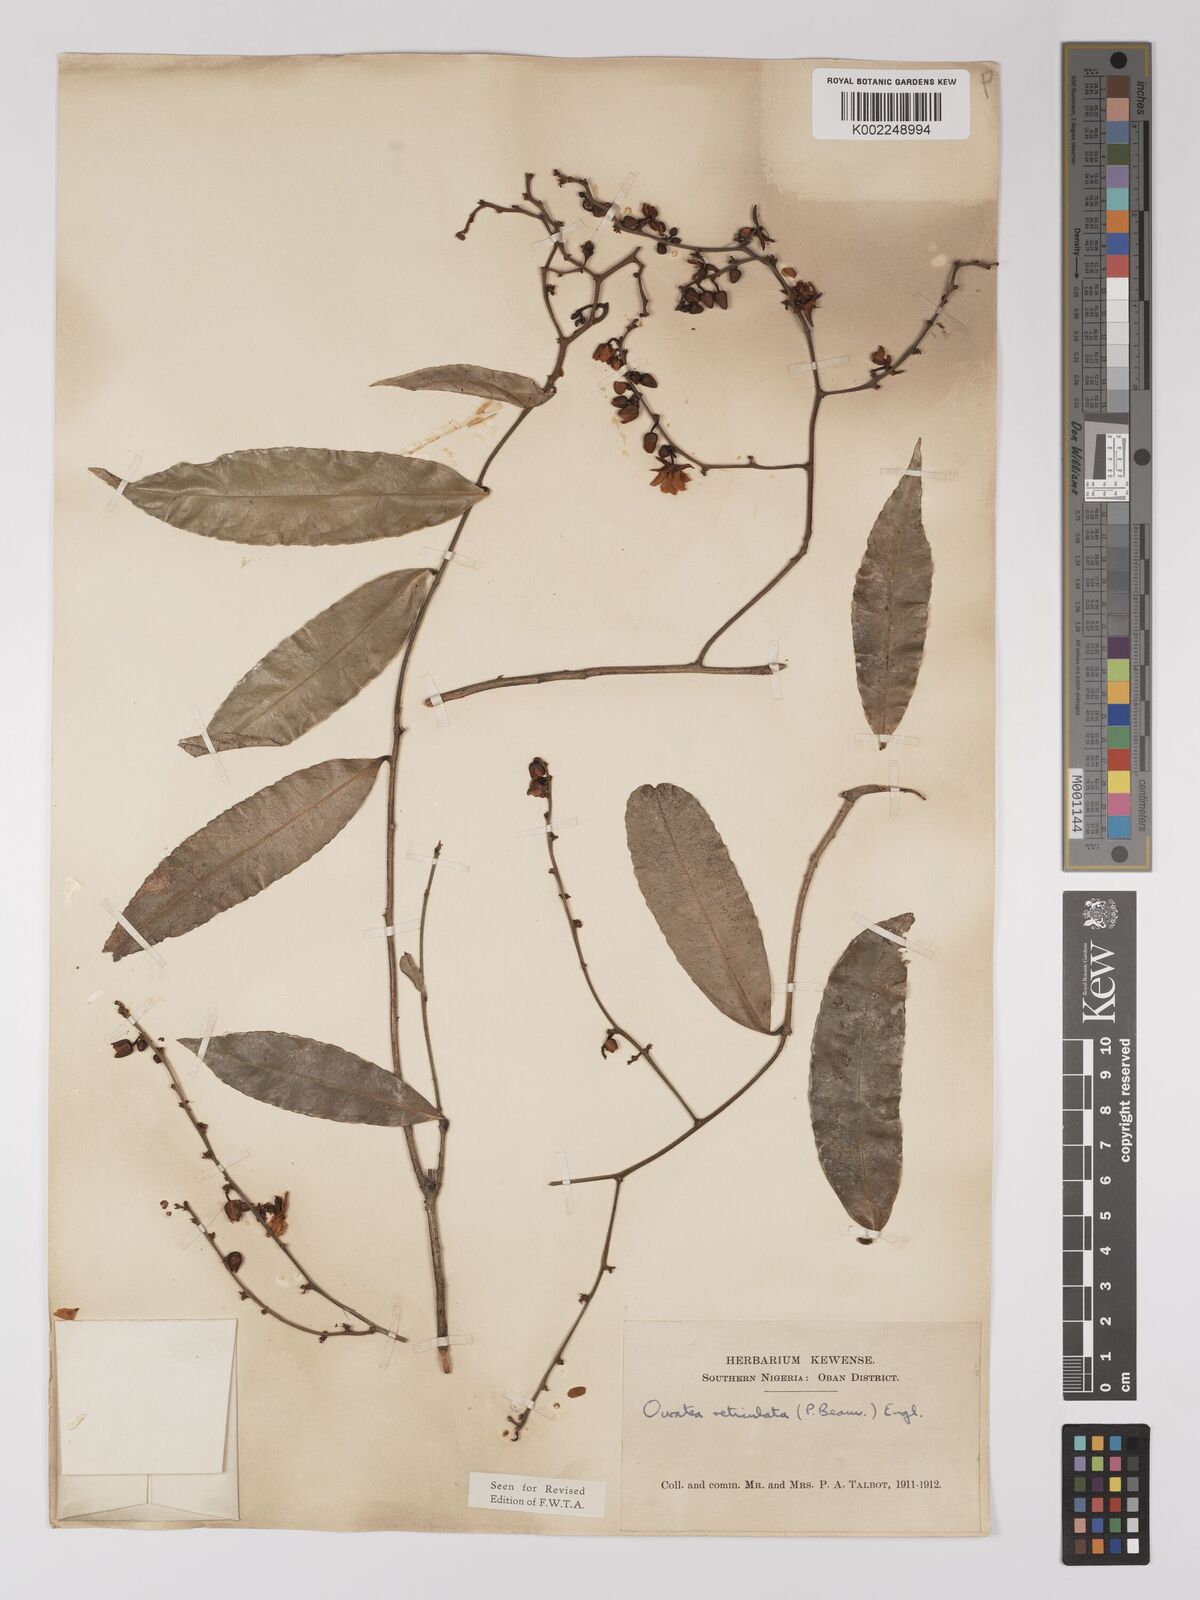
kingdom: Plantae
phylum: Tracheophyta
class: Magnoliopsida
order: Malpighiales
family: Ochnaceae
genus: Campylospermum
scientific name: Campylospermum reticulatum
